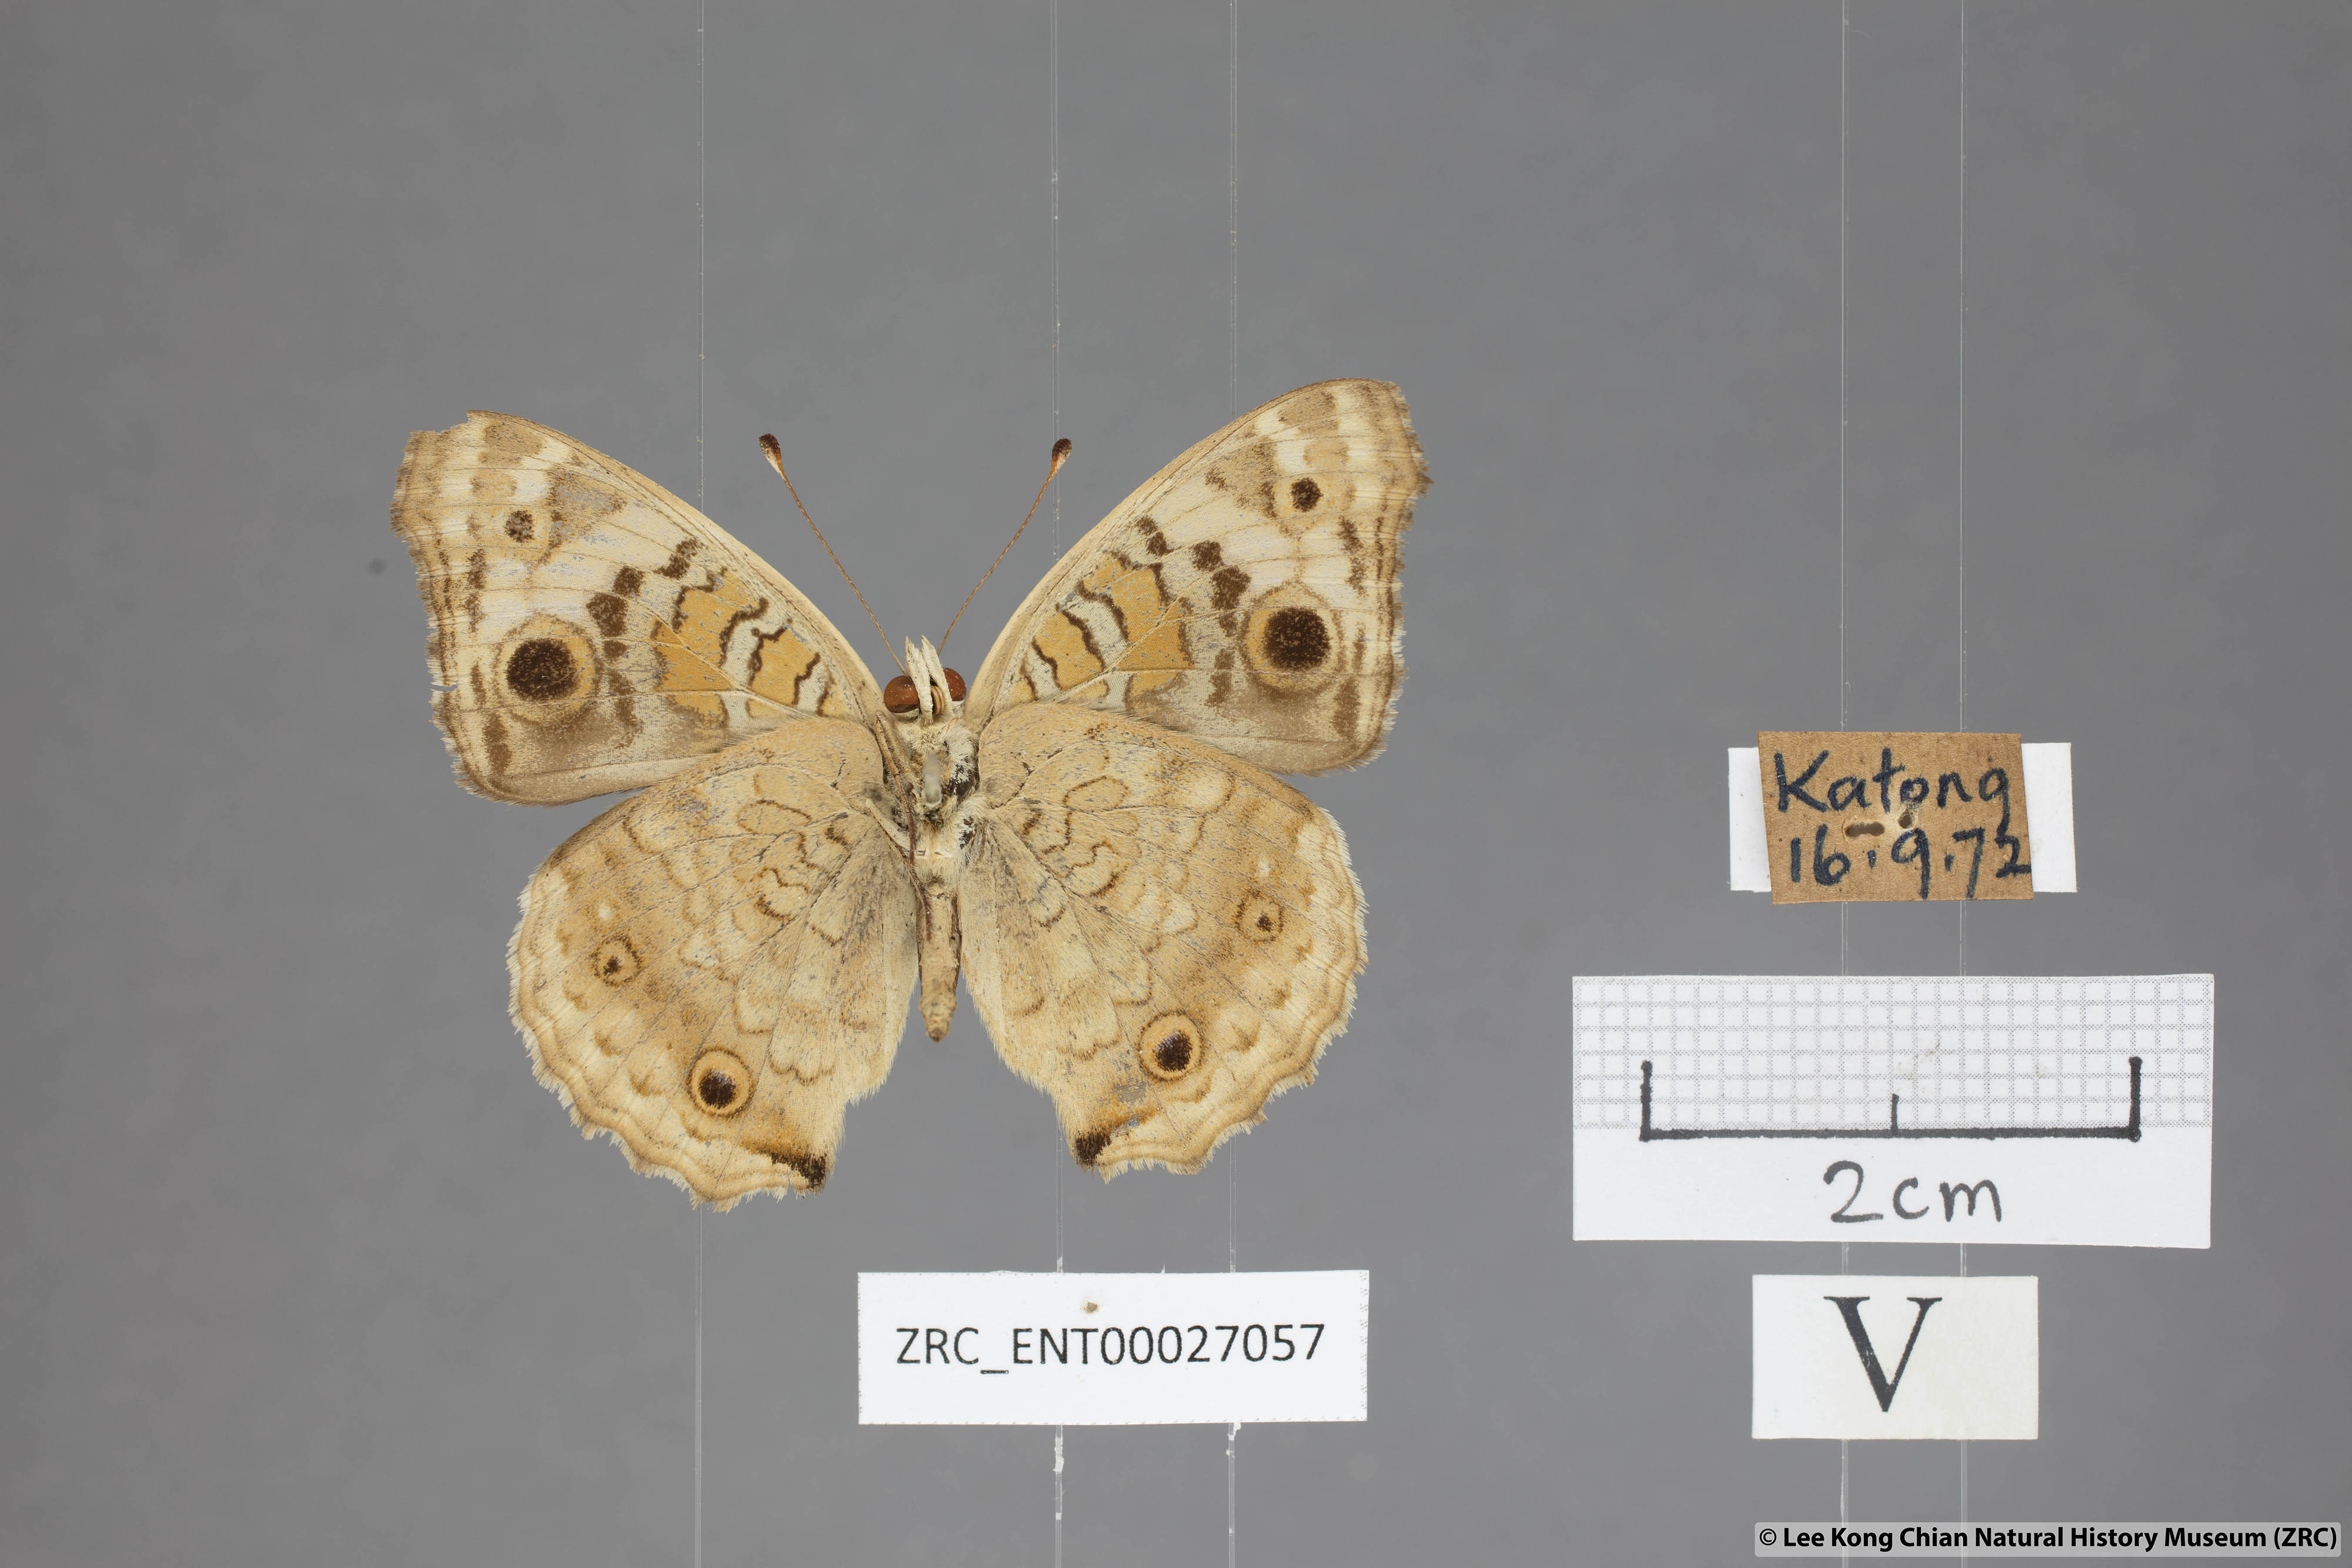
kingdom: Animalia
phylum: Arthropoda
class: Insecta
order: Lepidoptera
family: Nymphalidae
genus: Junonia
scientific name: Junonia orithya
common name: Blue pansy
